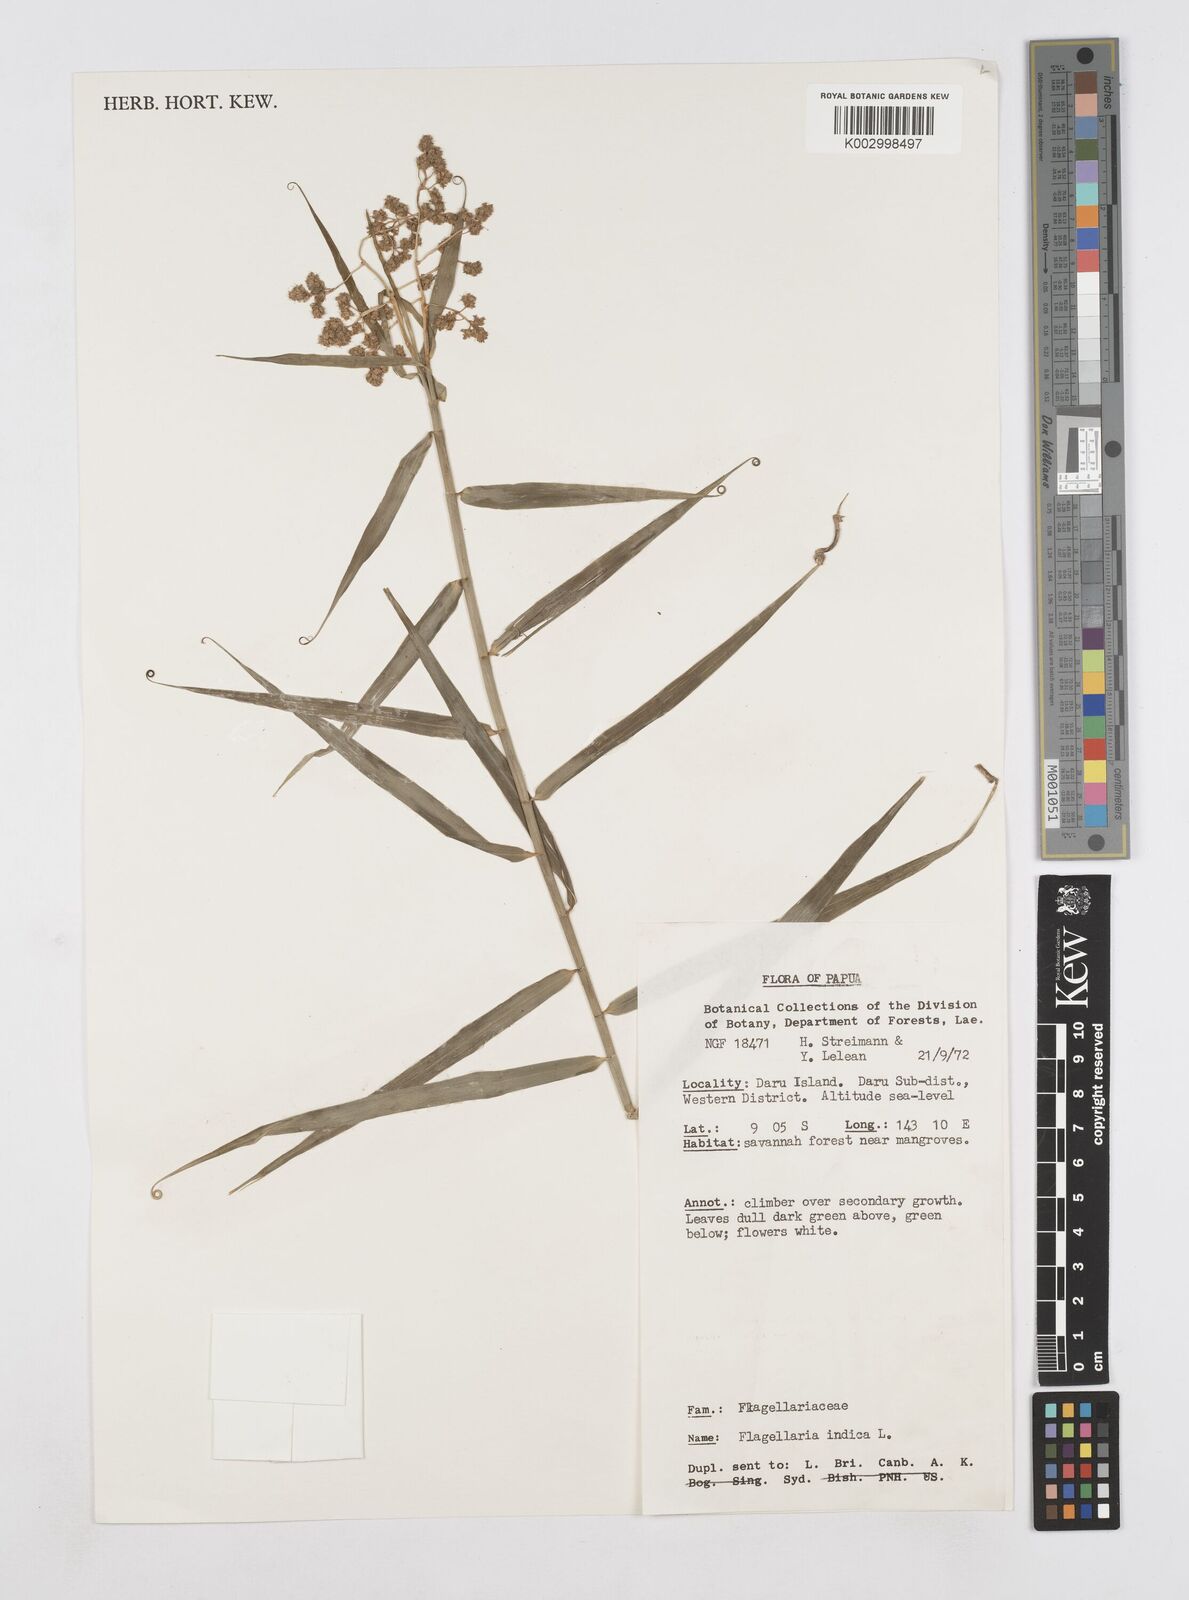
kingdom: Plantae
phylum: Tracheophyta
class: Liliopsida
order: Poales
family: Flagellariaceae
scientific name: Flagellariaceae
